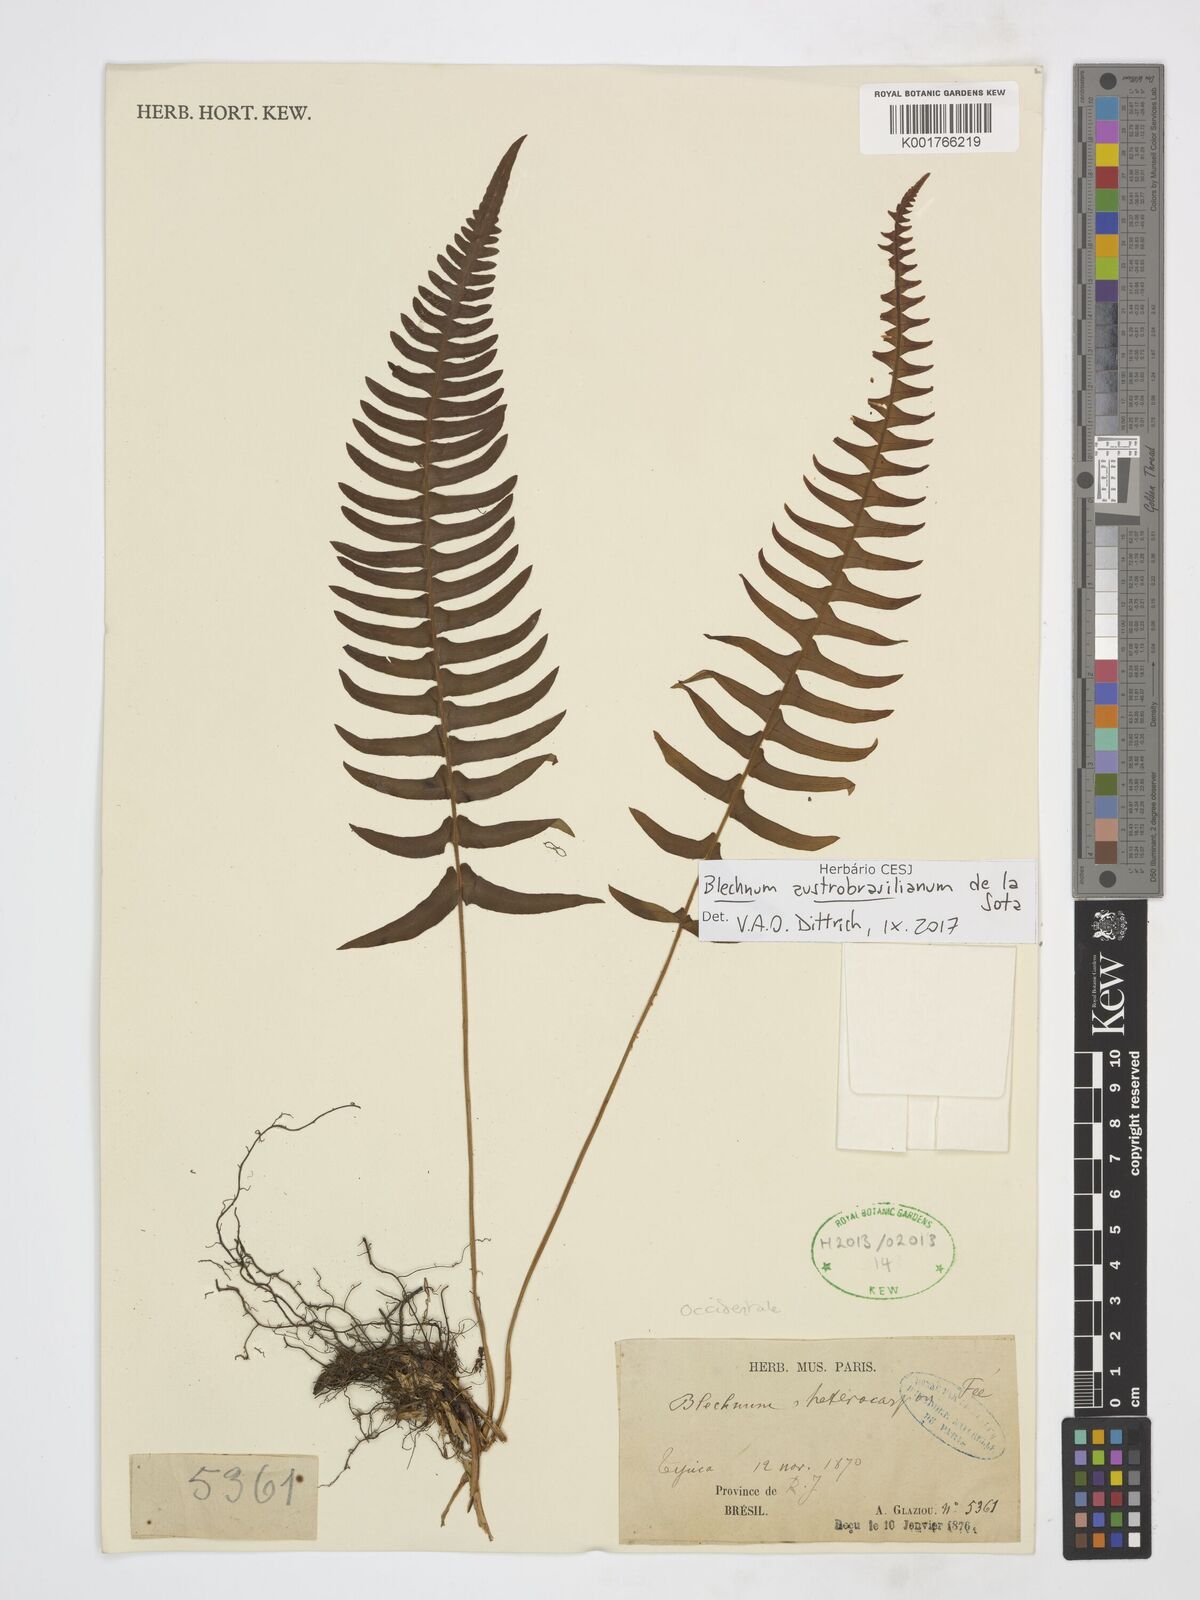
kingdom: Plantae
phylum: Tracheophyta
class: Polypodiopsida
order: Polypodiales
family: Blechnaceae
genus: Blechnum
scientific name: Blechnum austrobrasilianum
